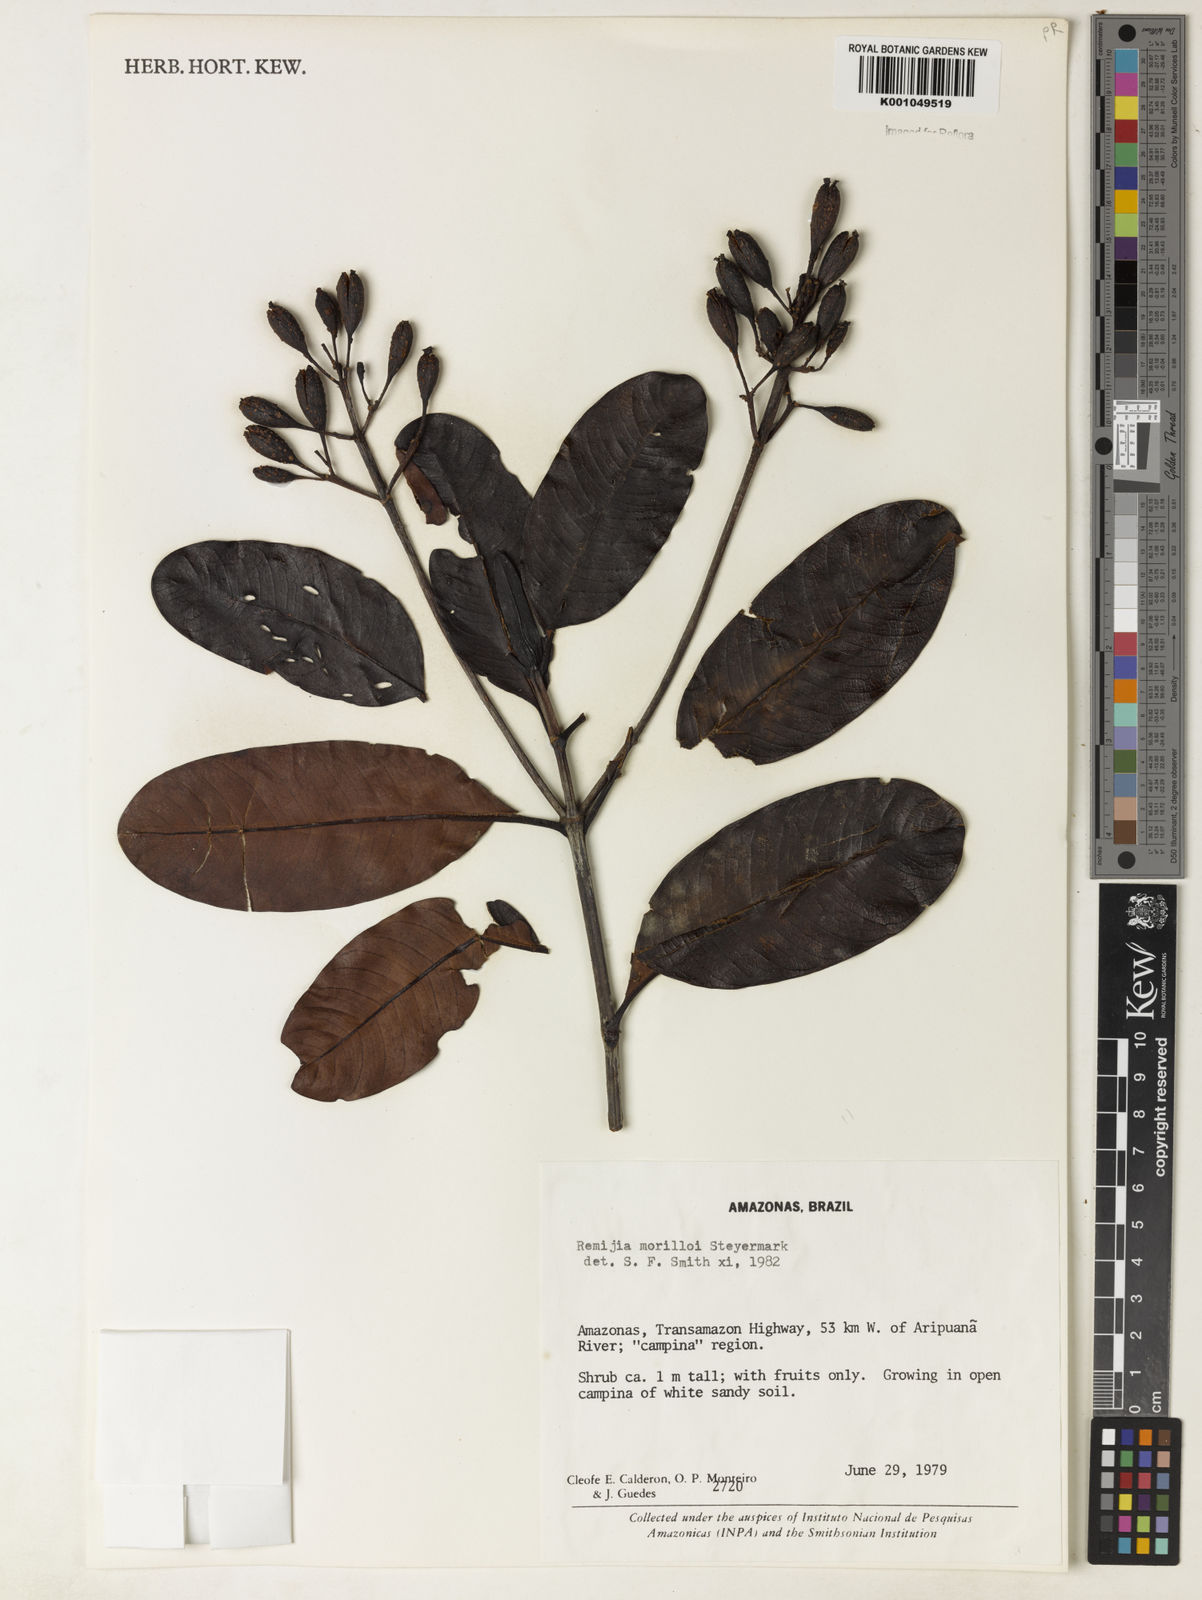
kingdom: Plantae
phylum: Tracheophyta
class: Magnoliopsida
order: Gentianales
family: Rubiaceae
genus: Remijia
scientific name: Remijia morilloi
